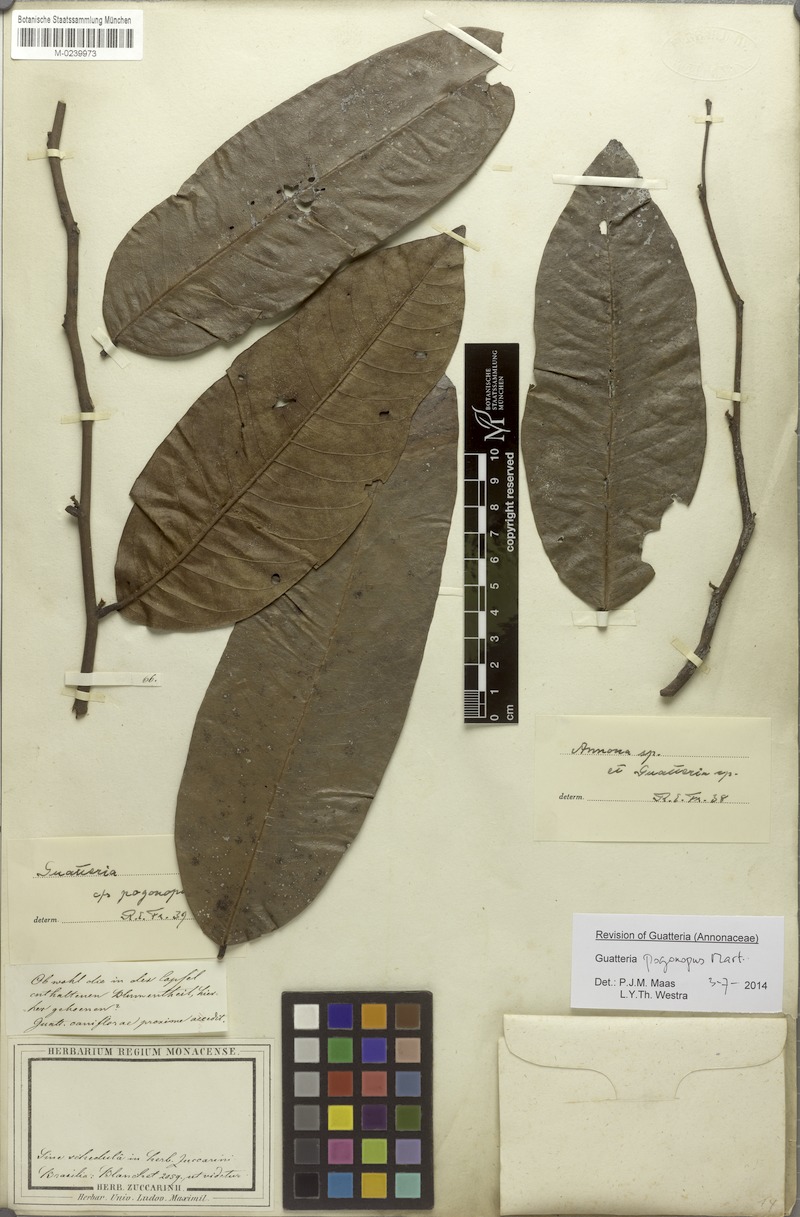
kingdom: Plantae
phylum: Tracheophyta
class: Magnoliopsida
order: Magnoliales
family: Annonaceae
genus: Guatteria
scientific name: Guatteria pogonopus
